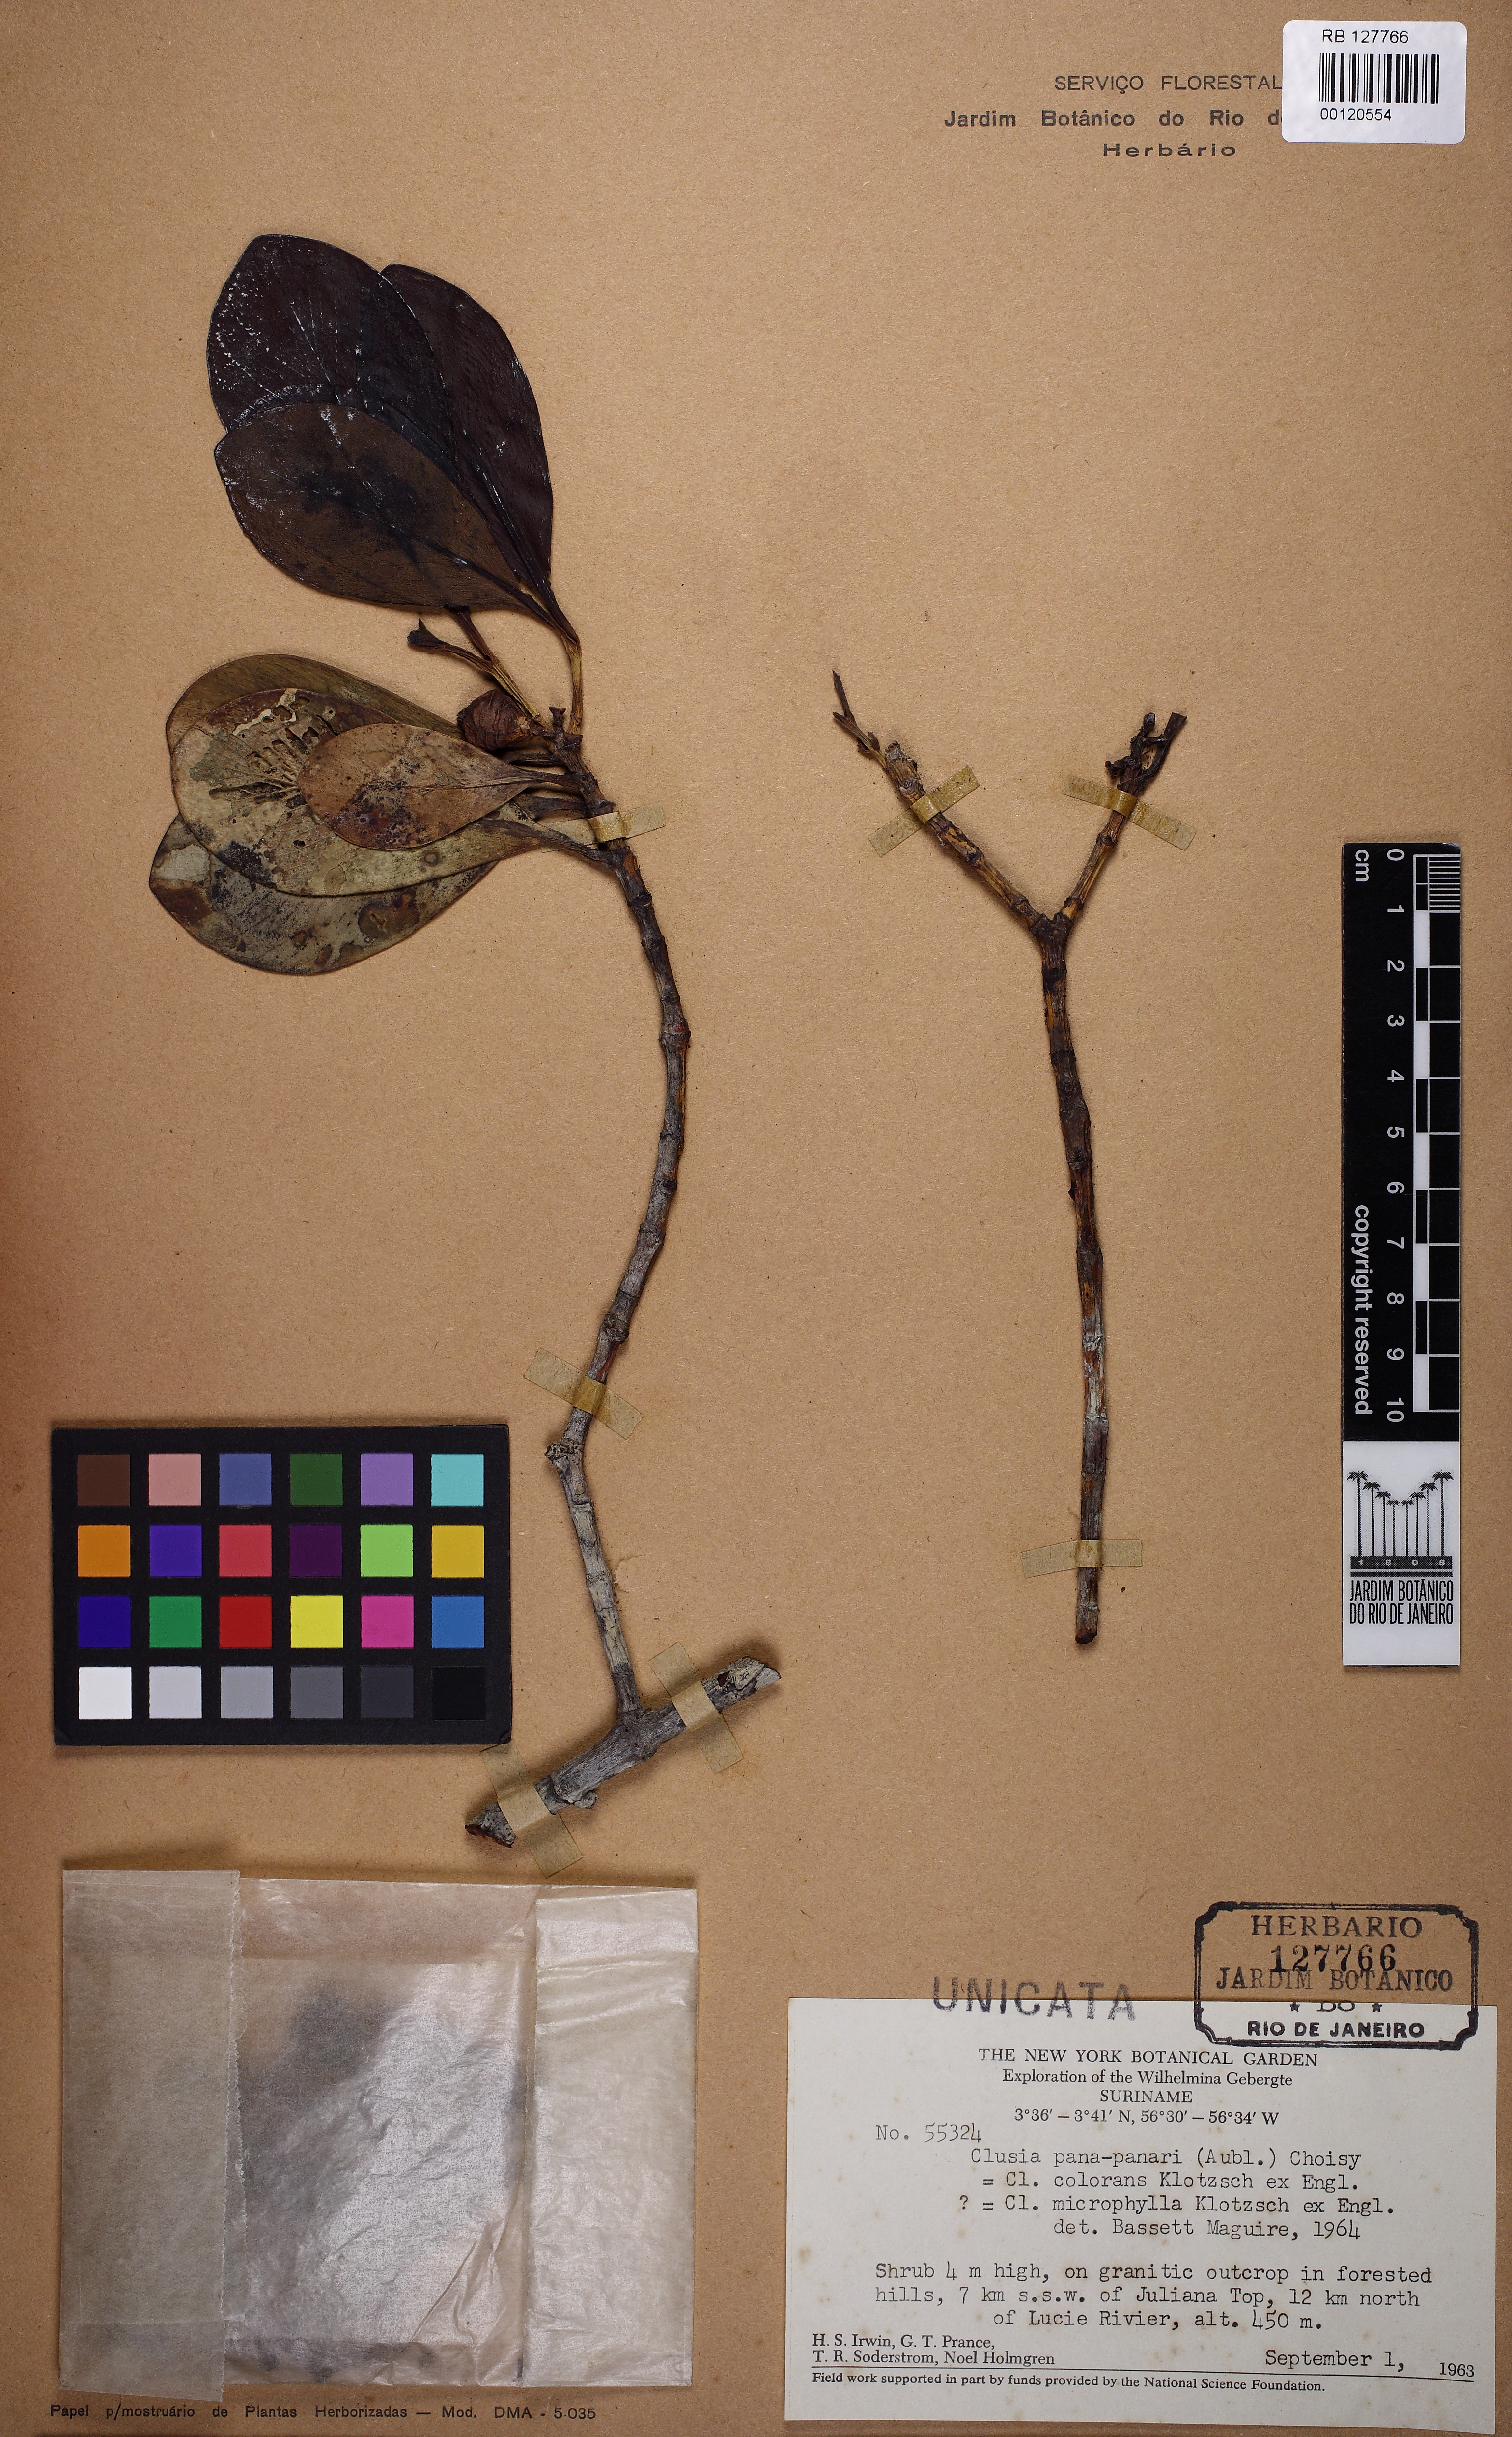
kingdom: Plantae
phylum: Tracheophyta
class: Magnoliopsida
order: Malpighiales
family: Clusiaceae
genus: Clusia
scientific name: Clusia panapanari
